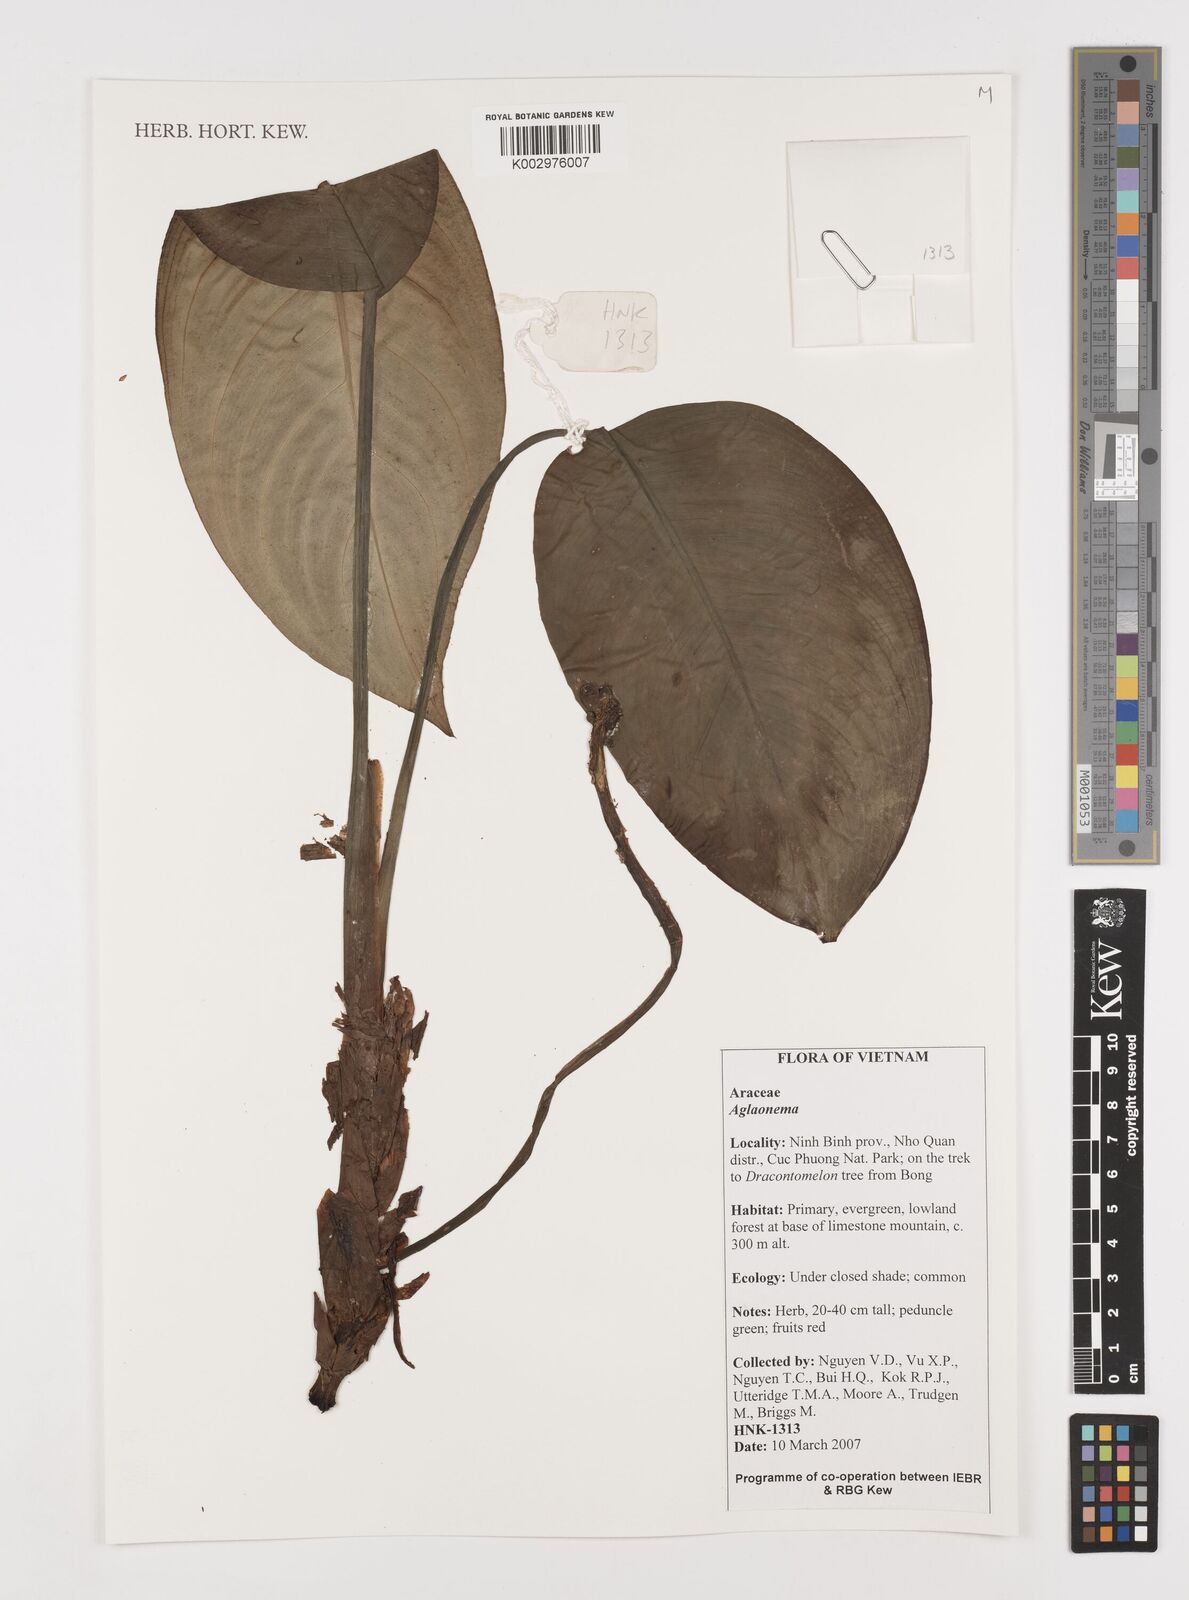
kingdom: Plantae
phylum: Tracheophyta
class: Liliopsida
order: Alismatales
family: Araceae
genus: Aglaonema
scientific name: Aglaonema simplex
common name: Malayan-sword
